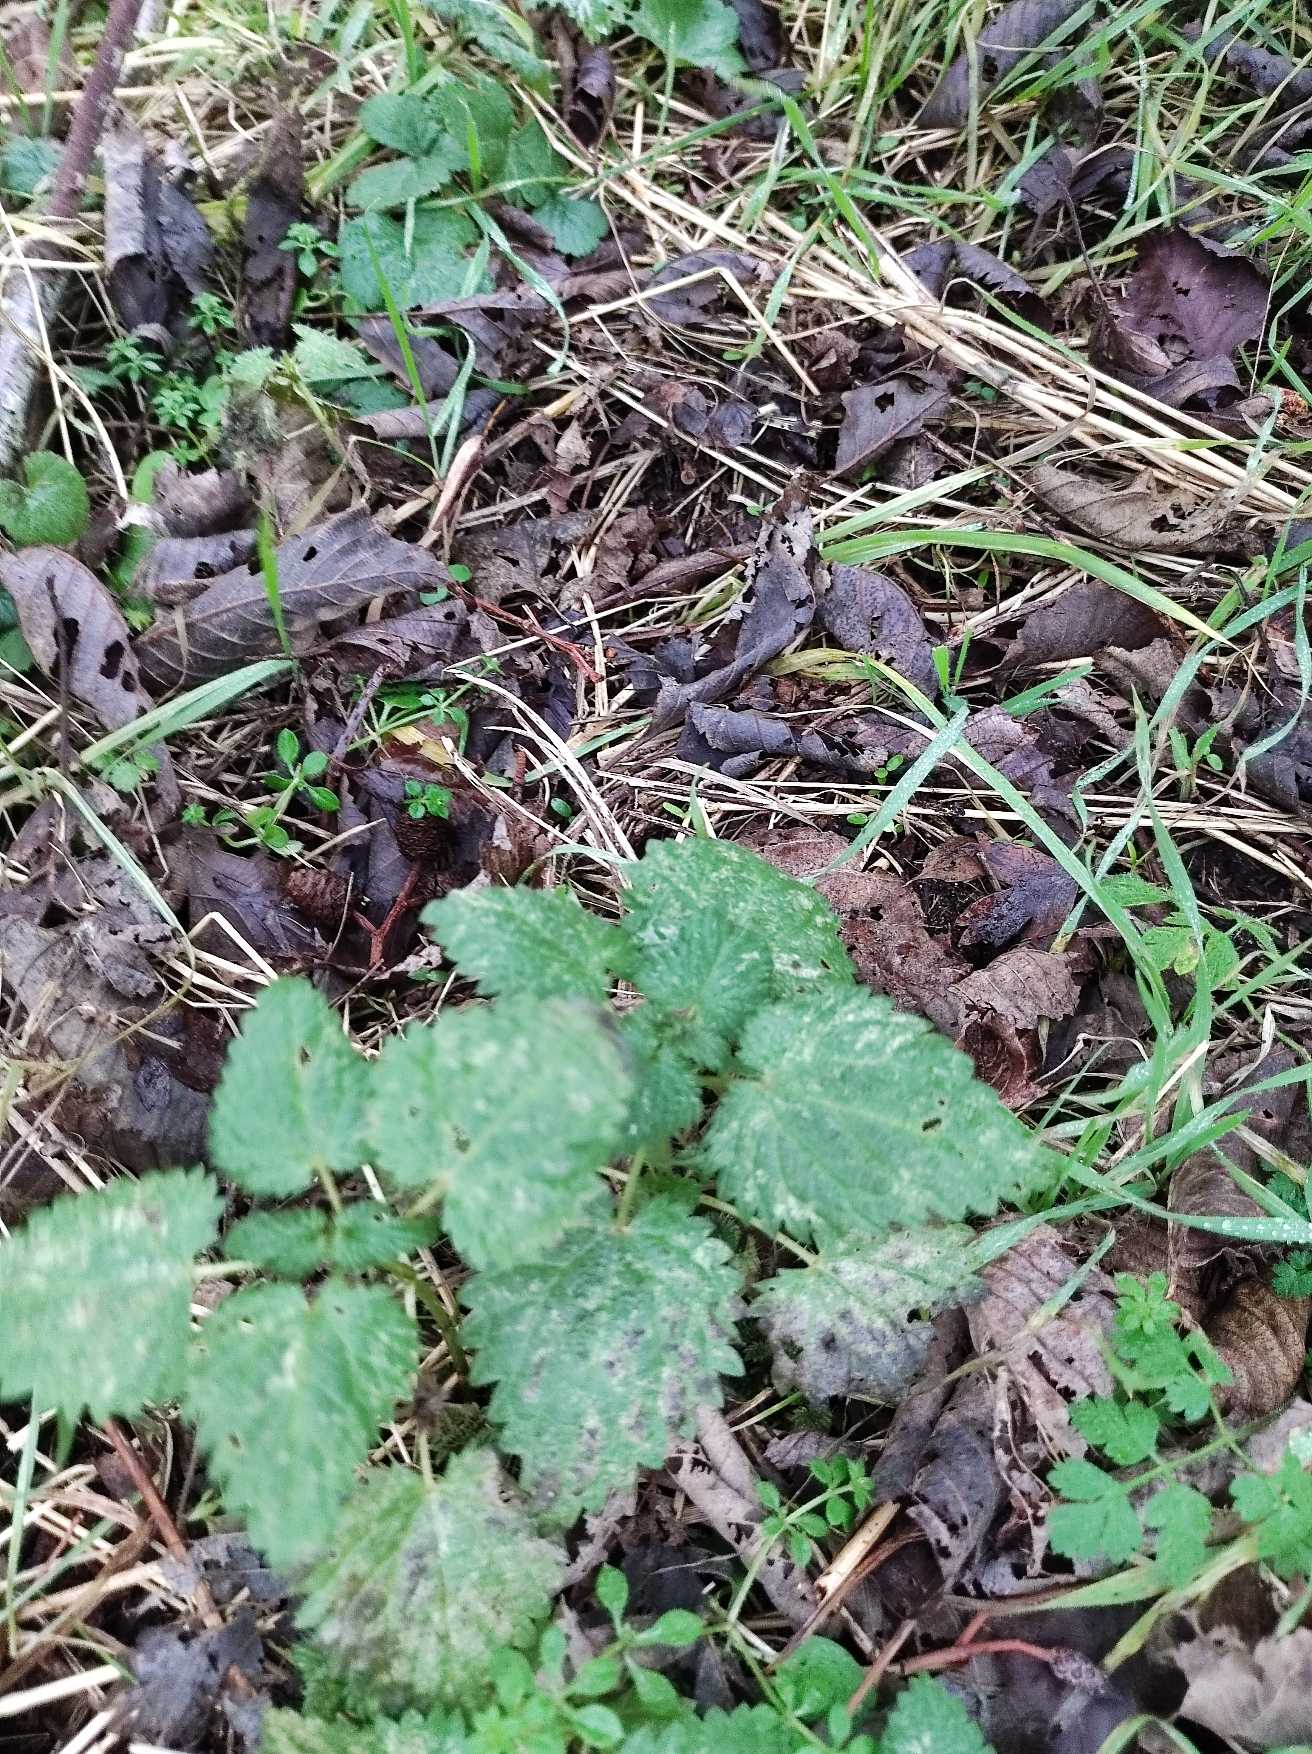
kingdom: Plantae
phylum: Tracheophyta
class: Magnoliopsida
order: Rosales
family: Urticaceae
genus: Urtica
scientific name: Urtica dioica
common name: Stor nælde
